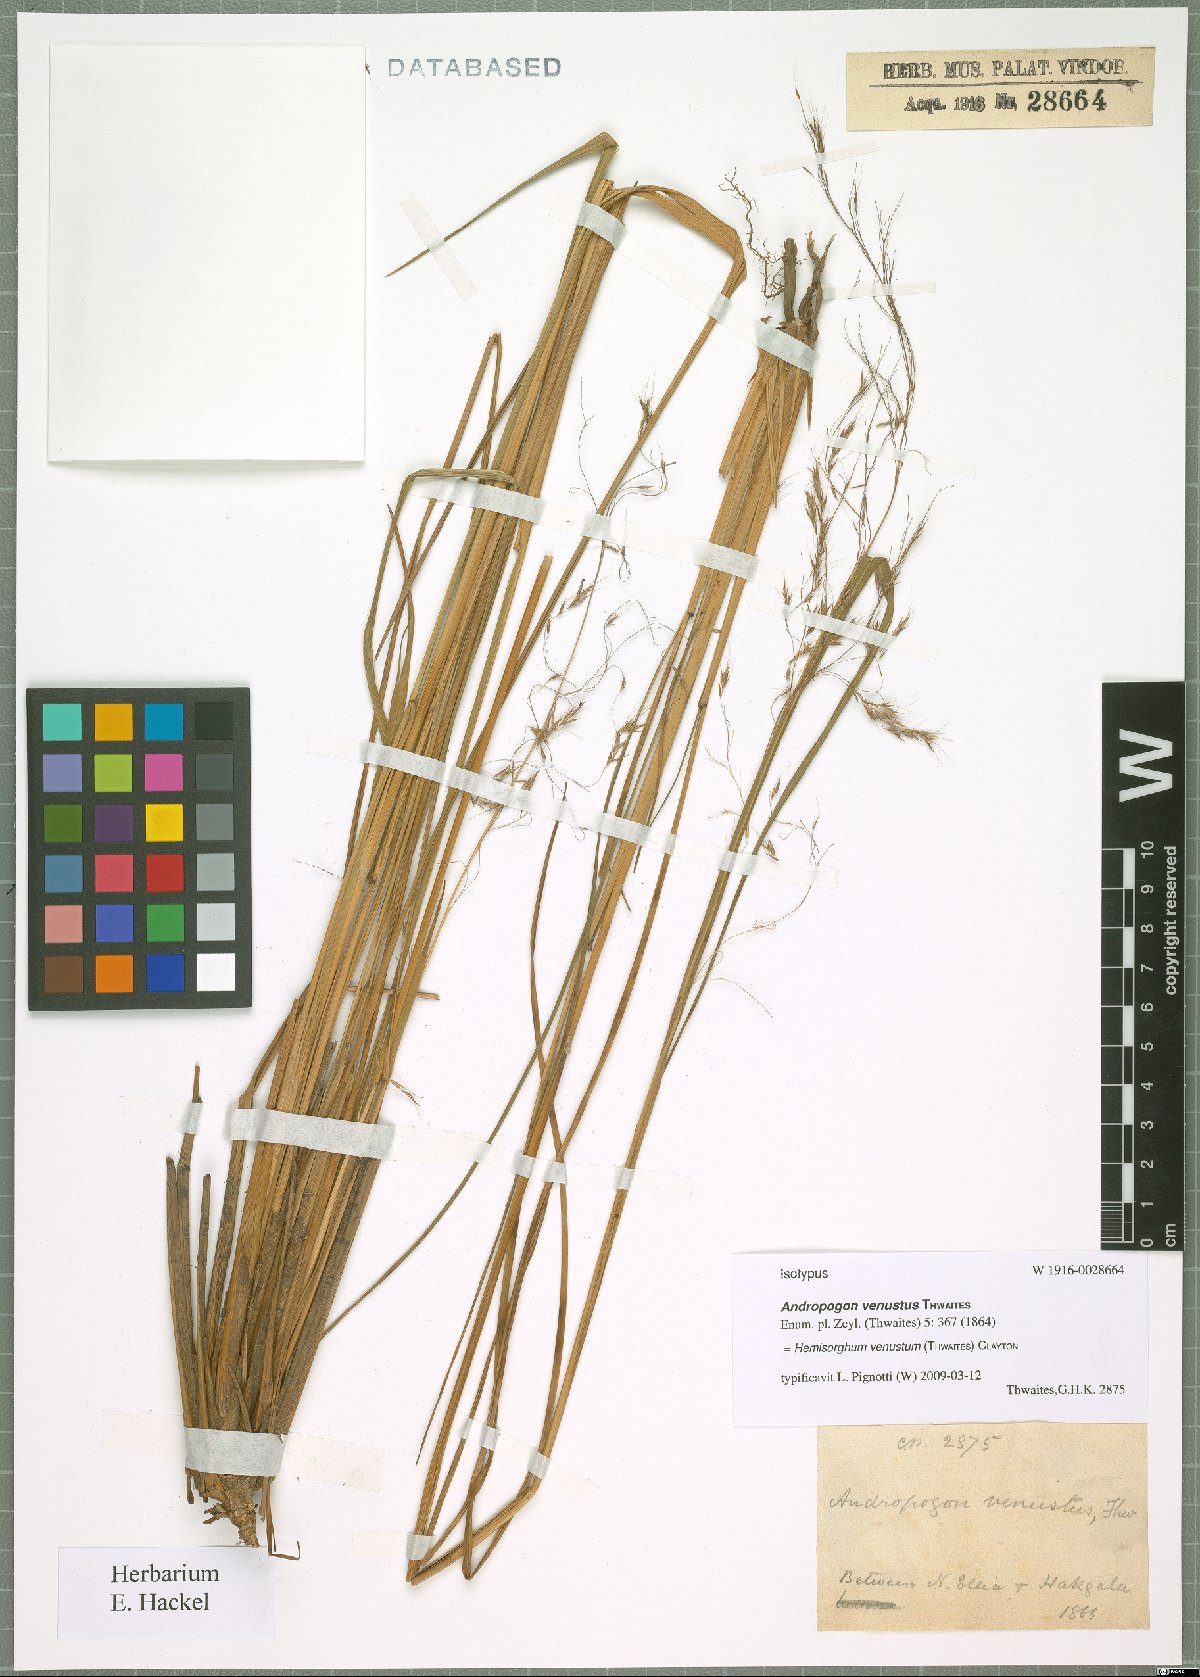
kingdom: Plantae
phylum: Tracheophyta
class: Liliopsida
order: Poales
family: Poaceae
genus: Hemisorghum
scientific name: Hemisorghum venustum
